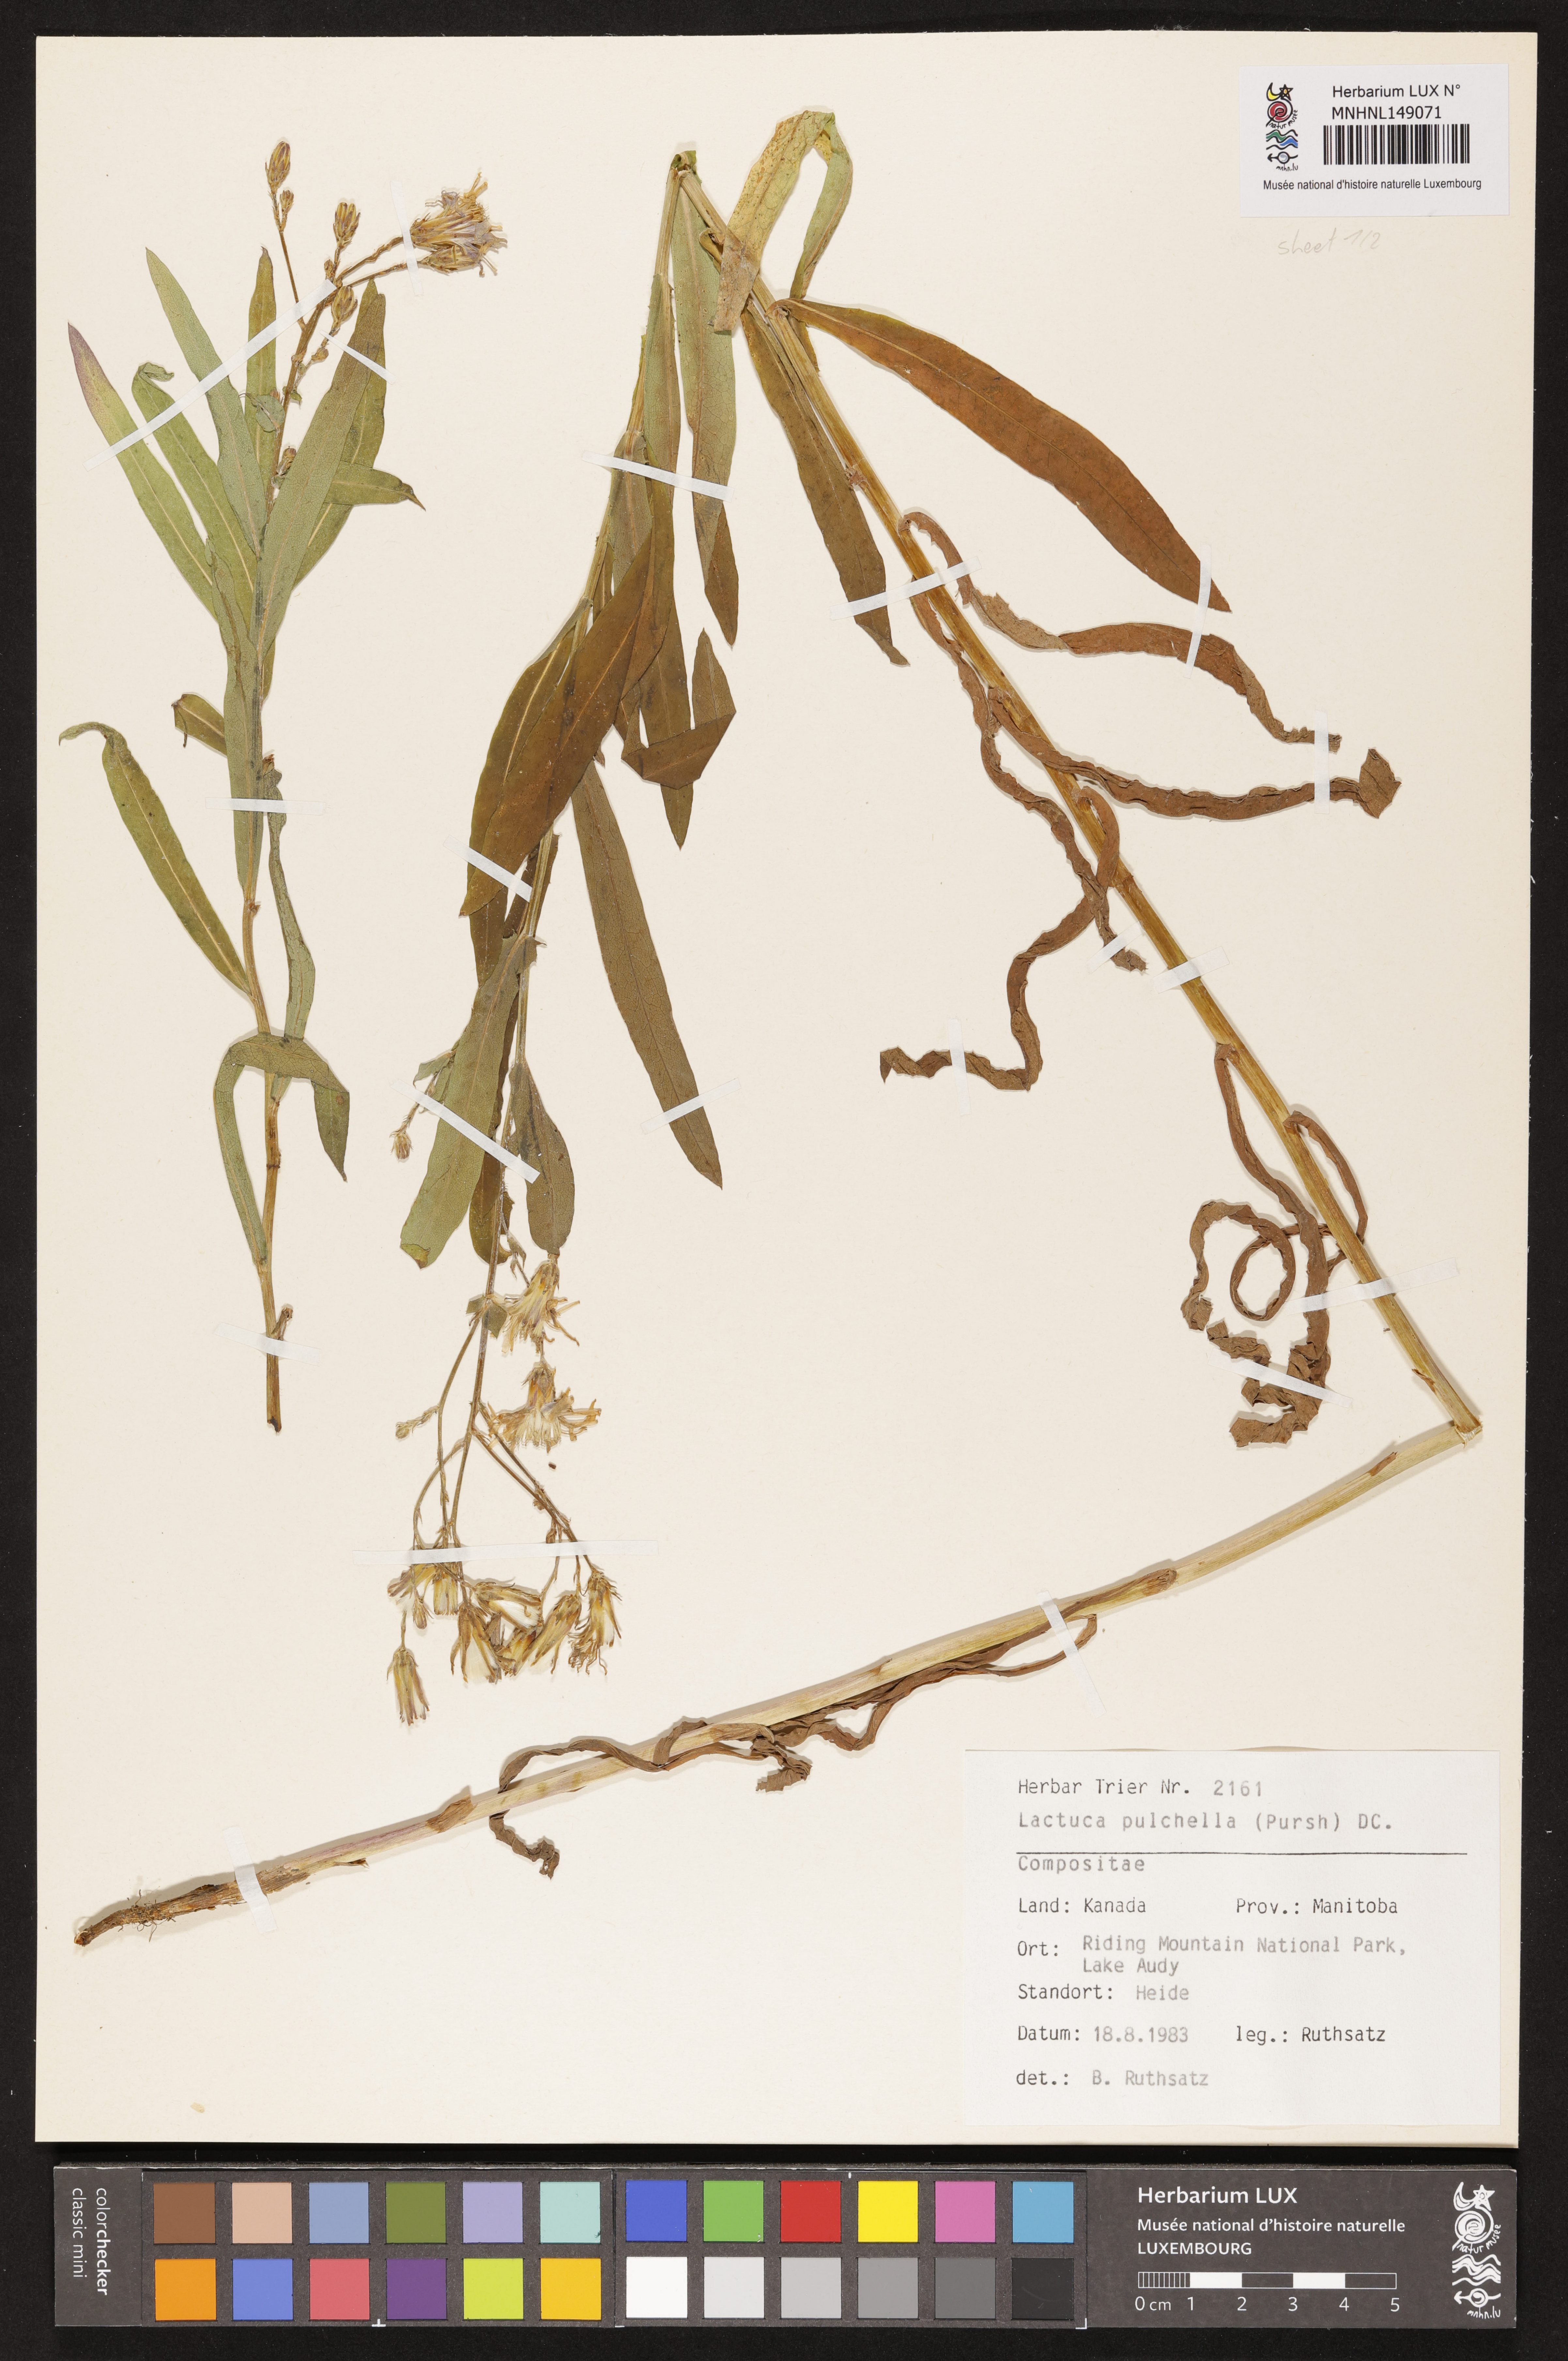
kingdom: Plantae
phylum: Tracheophyta
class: Magnoliopsida
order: Asterales
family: Asteraceae
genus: Lactuca
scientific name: Lactuca pulchella
